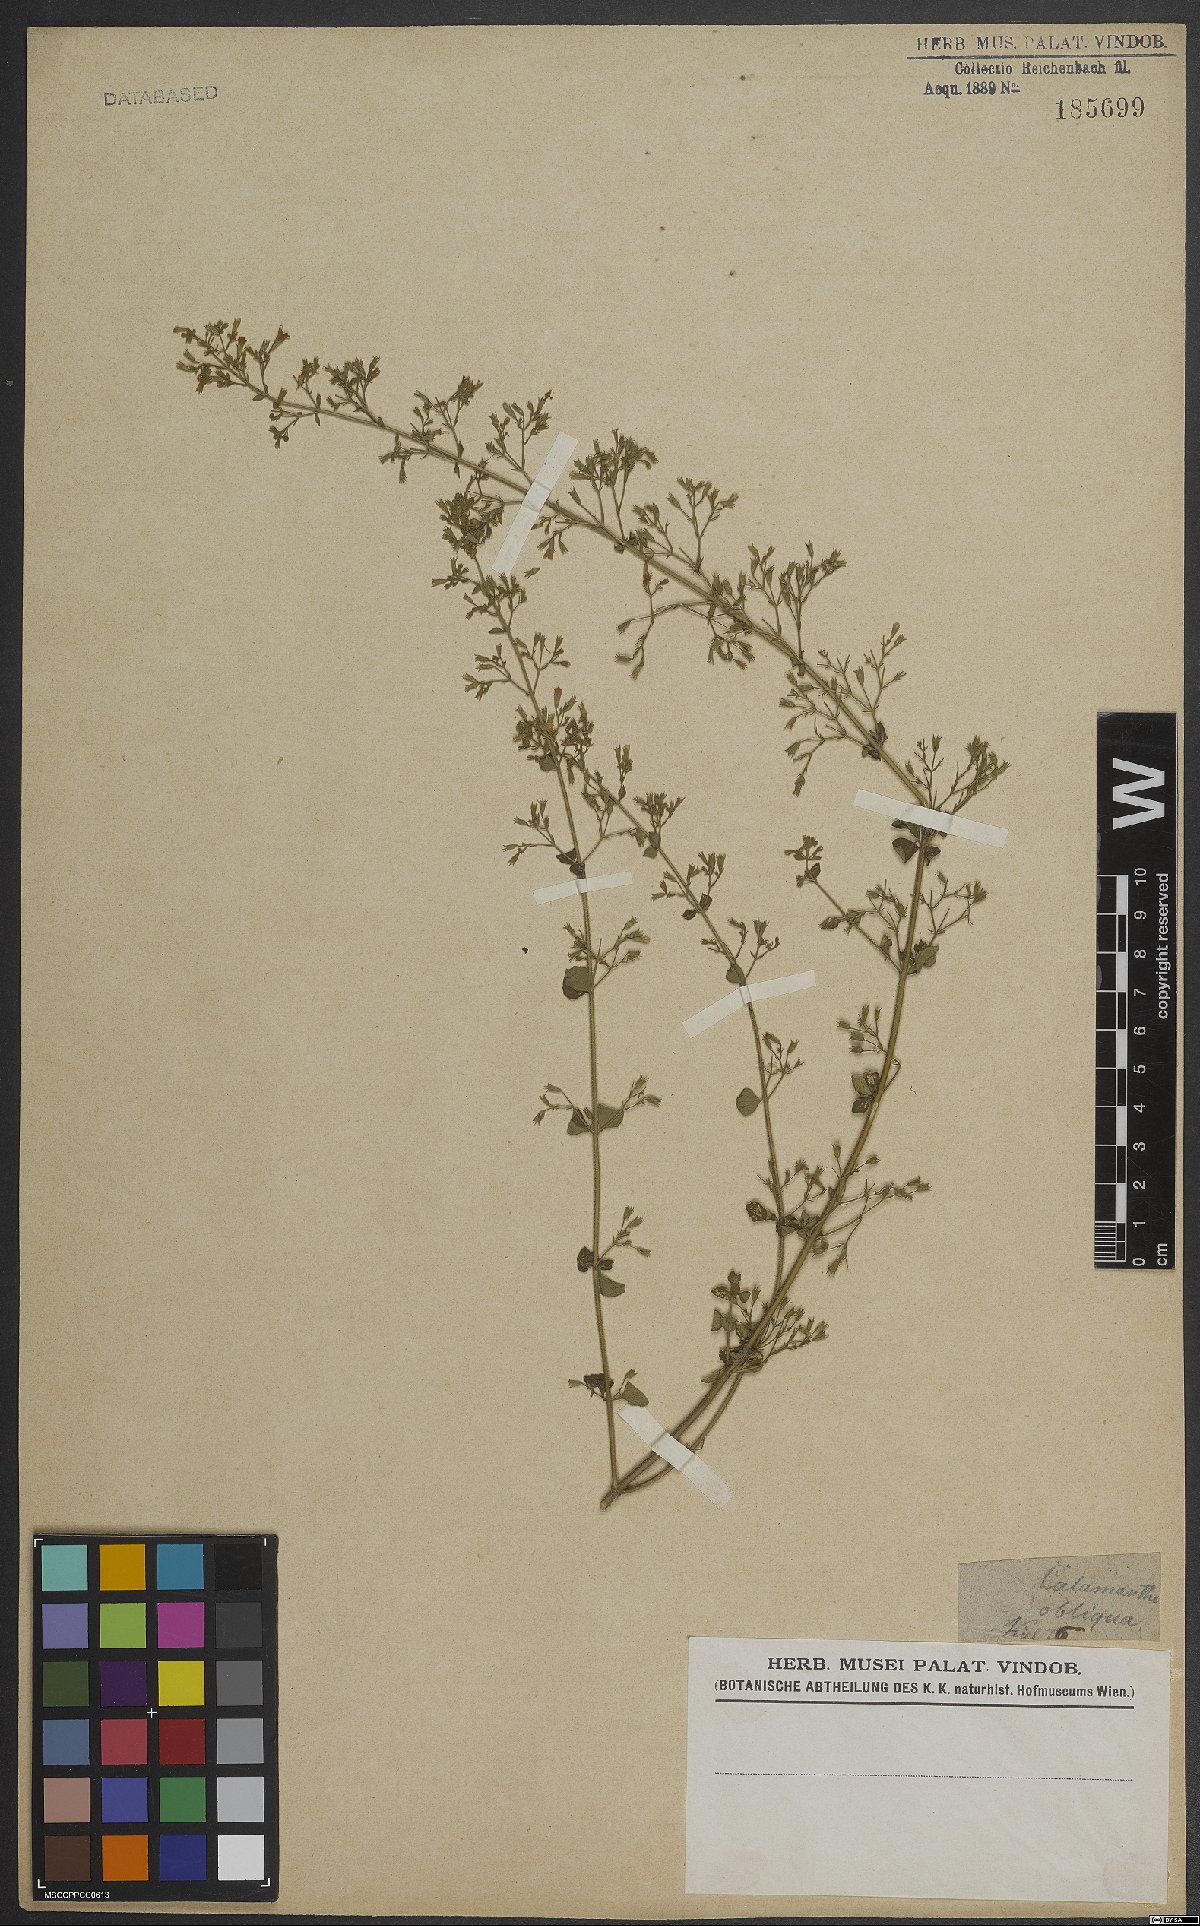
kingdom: Plantae
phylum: Tracheophyta
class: Magnoliopsida
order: Lamiales
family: Lamiaceae
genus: Clinopodium
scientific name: Clinopodium nepeta
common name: Lesser calamint
